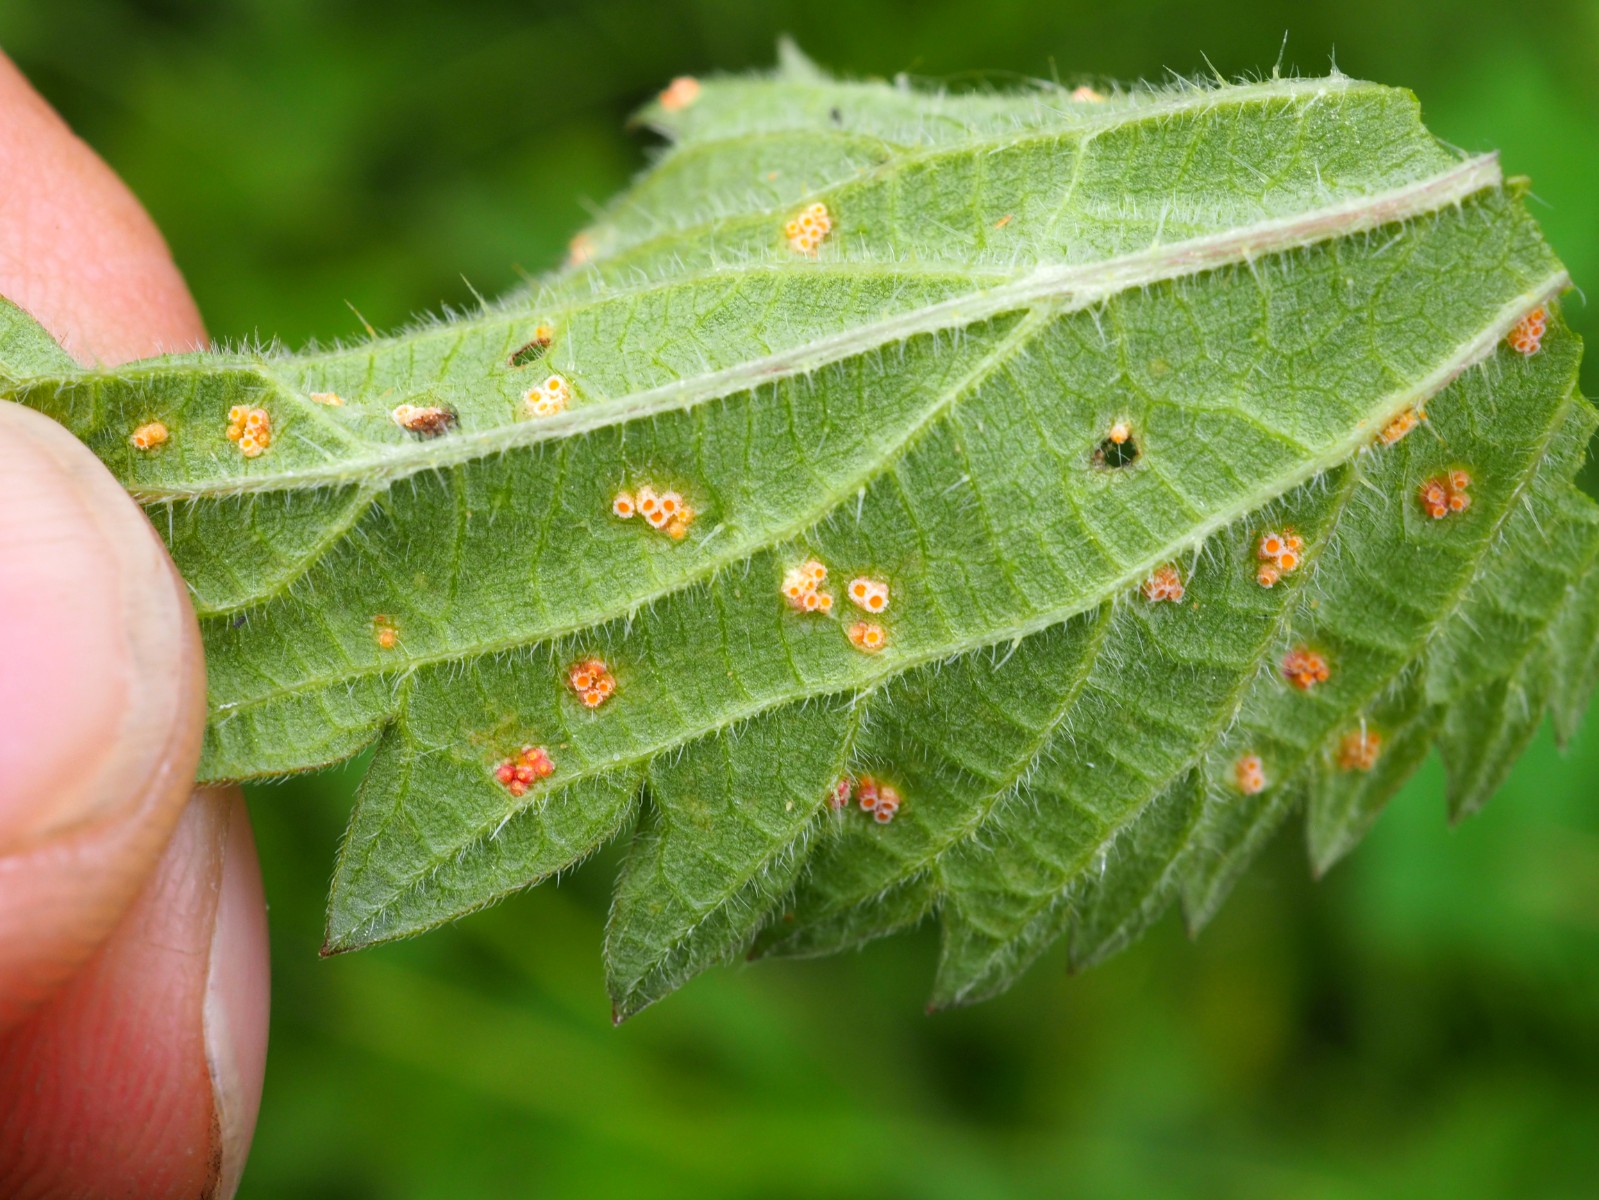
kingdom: Fungi
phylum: Basidiomycota
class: Pucciniomycetes
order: Pucciniales
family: Pucciniaceae
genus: Puccinia
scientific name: Puccinia urticata
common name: nældegalle-tvecellerust
